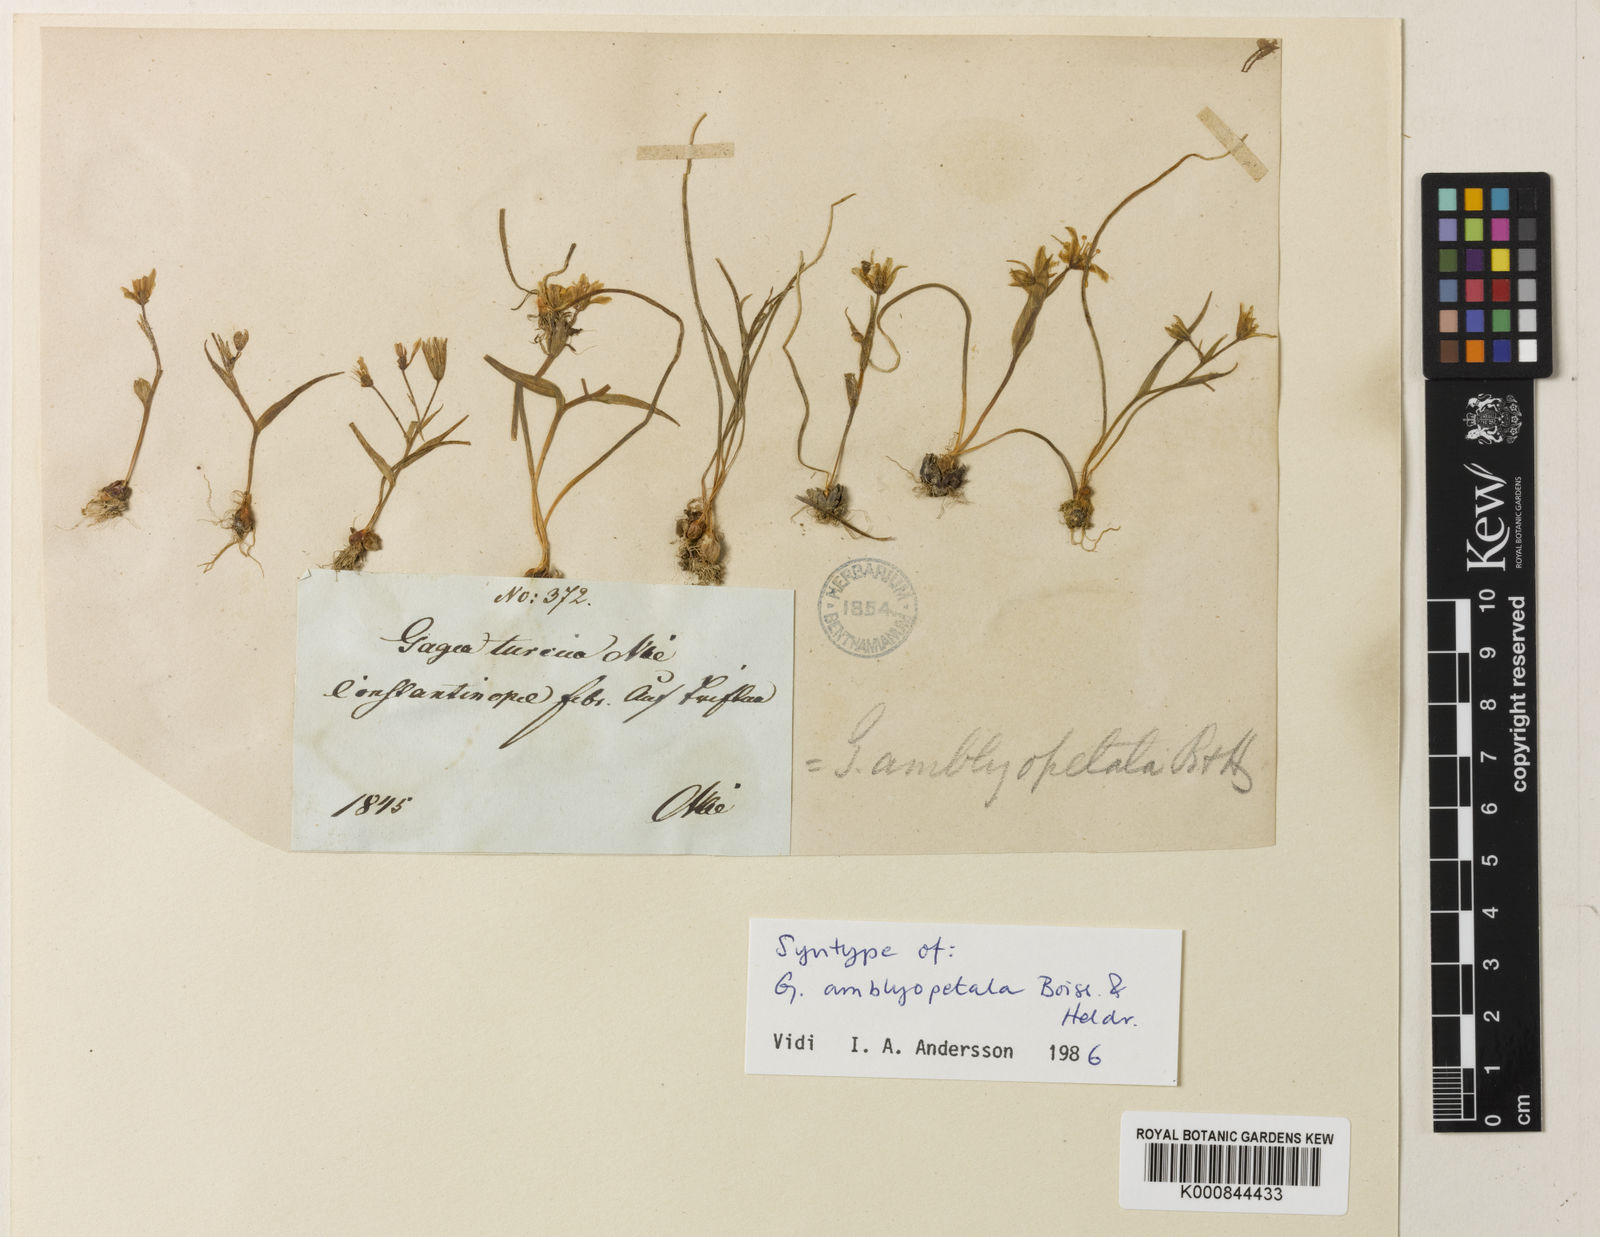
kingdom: Plantae
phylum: Tracheophyta
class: Liliopsida
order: Liliales
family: Liliaceae
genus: Gagea
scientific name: Gagea amblyopetala
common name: Blunt-flowered gagea
